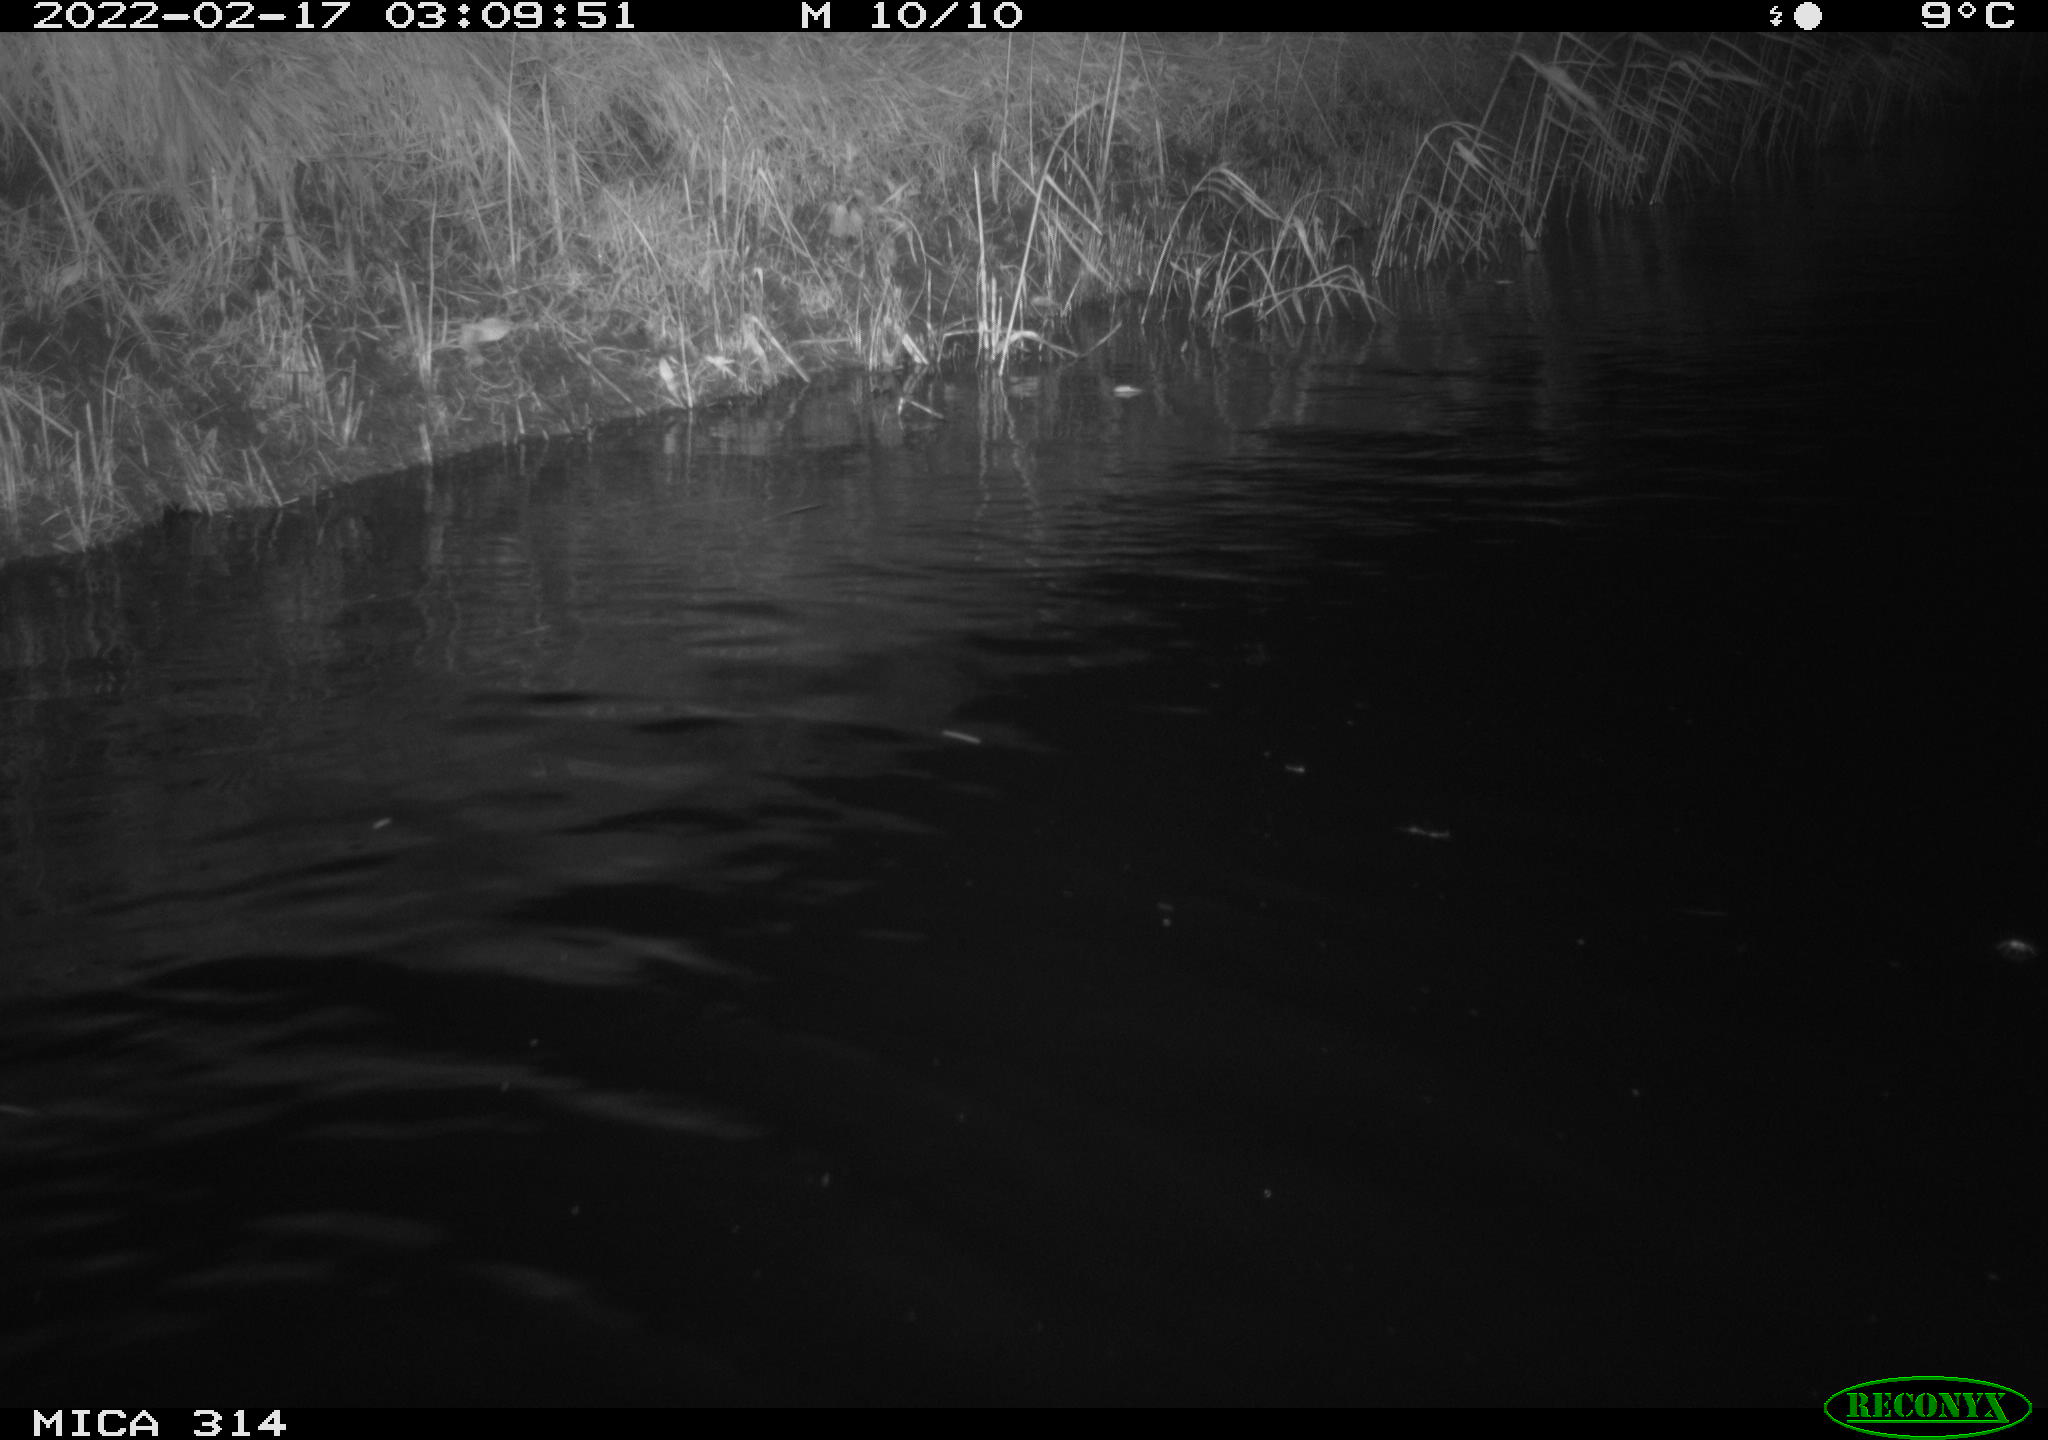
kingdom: Animalia
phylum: Chordata
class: Aves
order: Gruiformes
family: Rallidae
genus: Gallinula
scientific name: Gallinula chloropus
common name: Common moorhen
